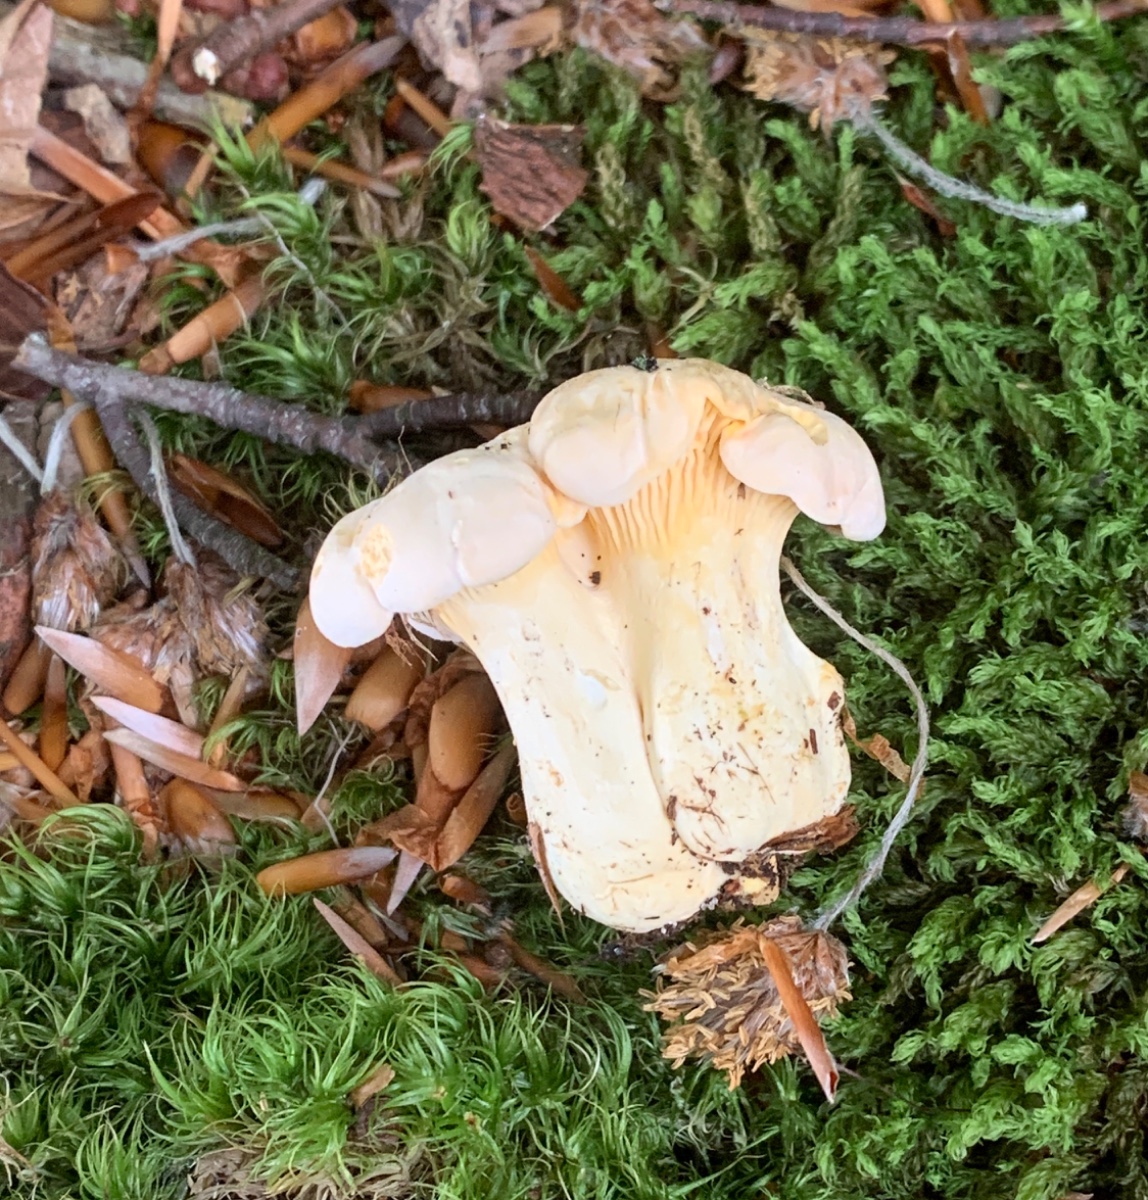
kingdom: Fungi
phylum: Basidiomycota
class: Agaricomycetes
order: Cantharellales
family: Hydnaceae
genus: Cantharellus
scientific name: Cantharellus pallens
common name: bleg kantarel
